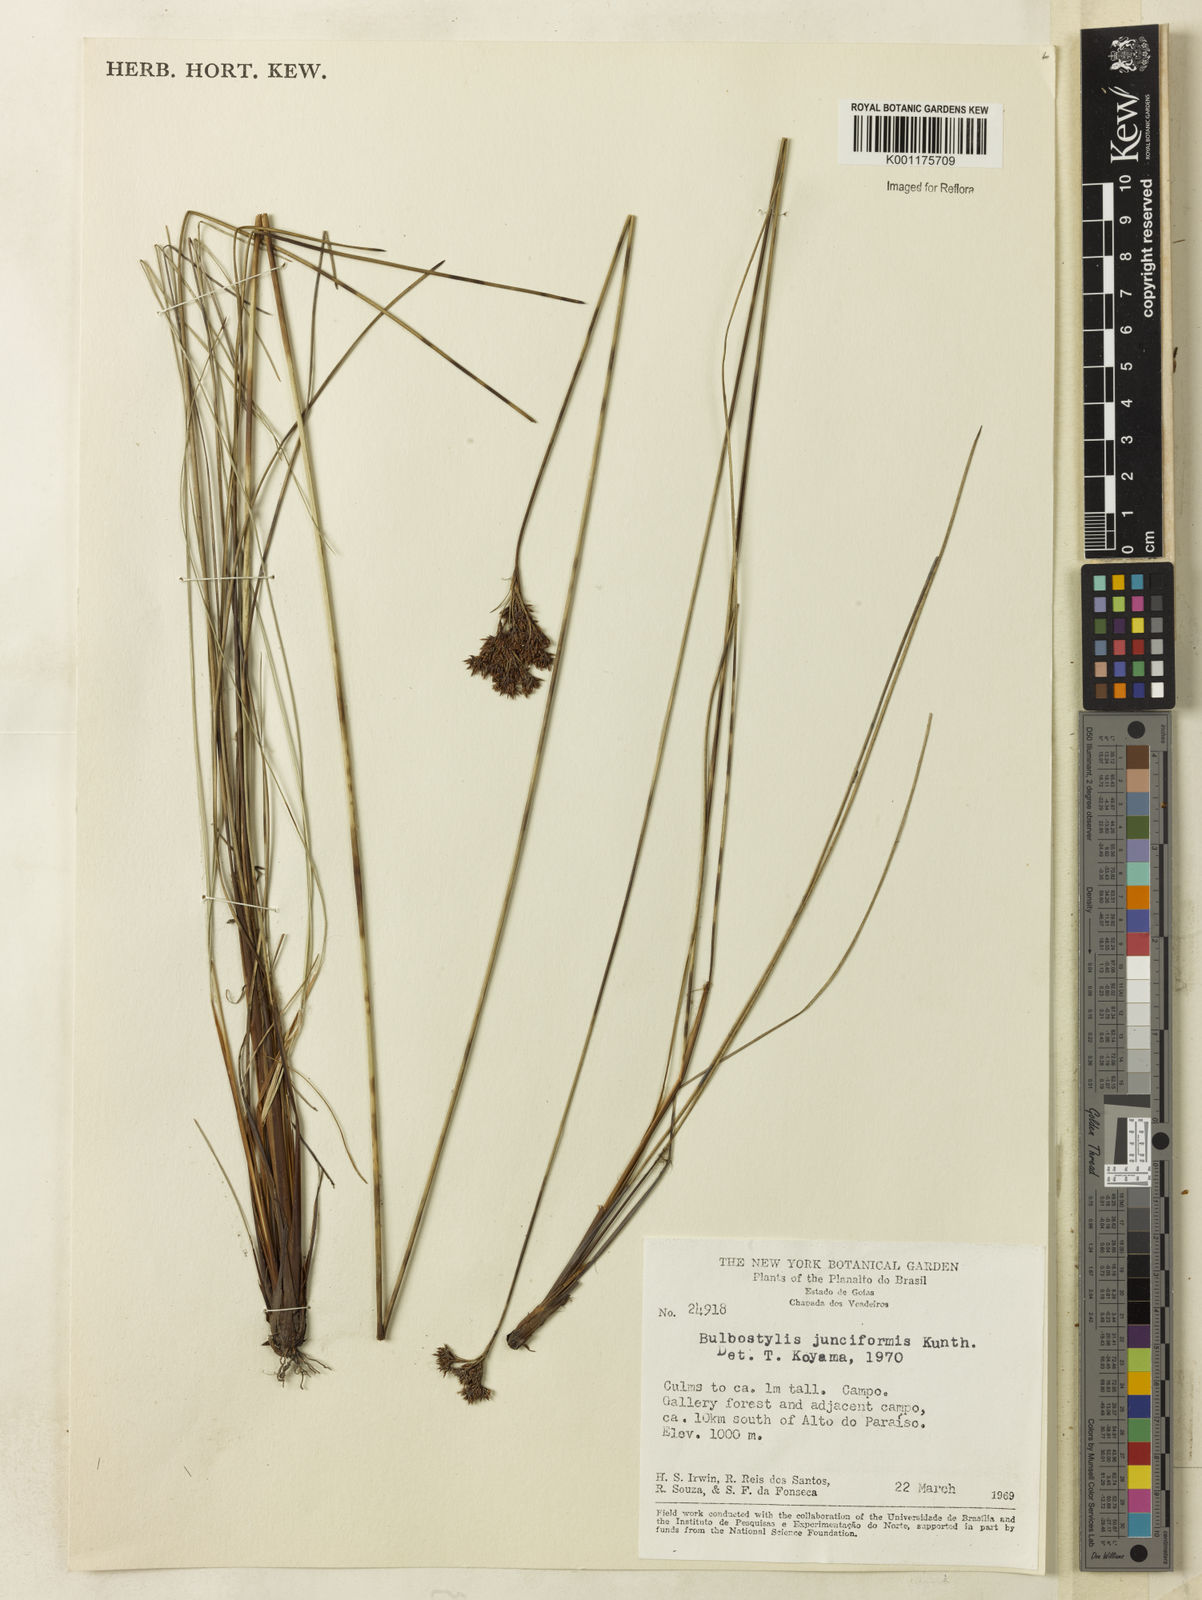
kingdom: Plantae
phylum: Tracheophyta
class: Liliopsida
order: Poales
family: Cyperaceae
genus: Bulbostylis
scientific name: Bulbostylis junciformis
